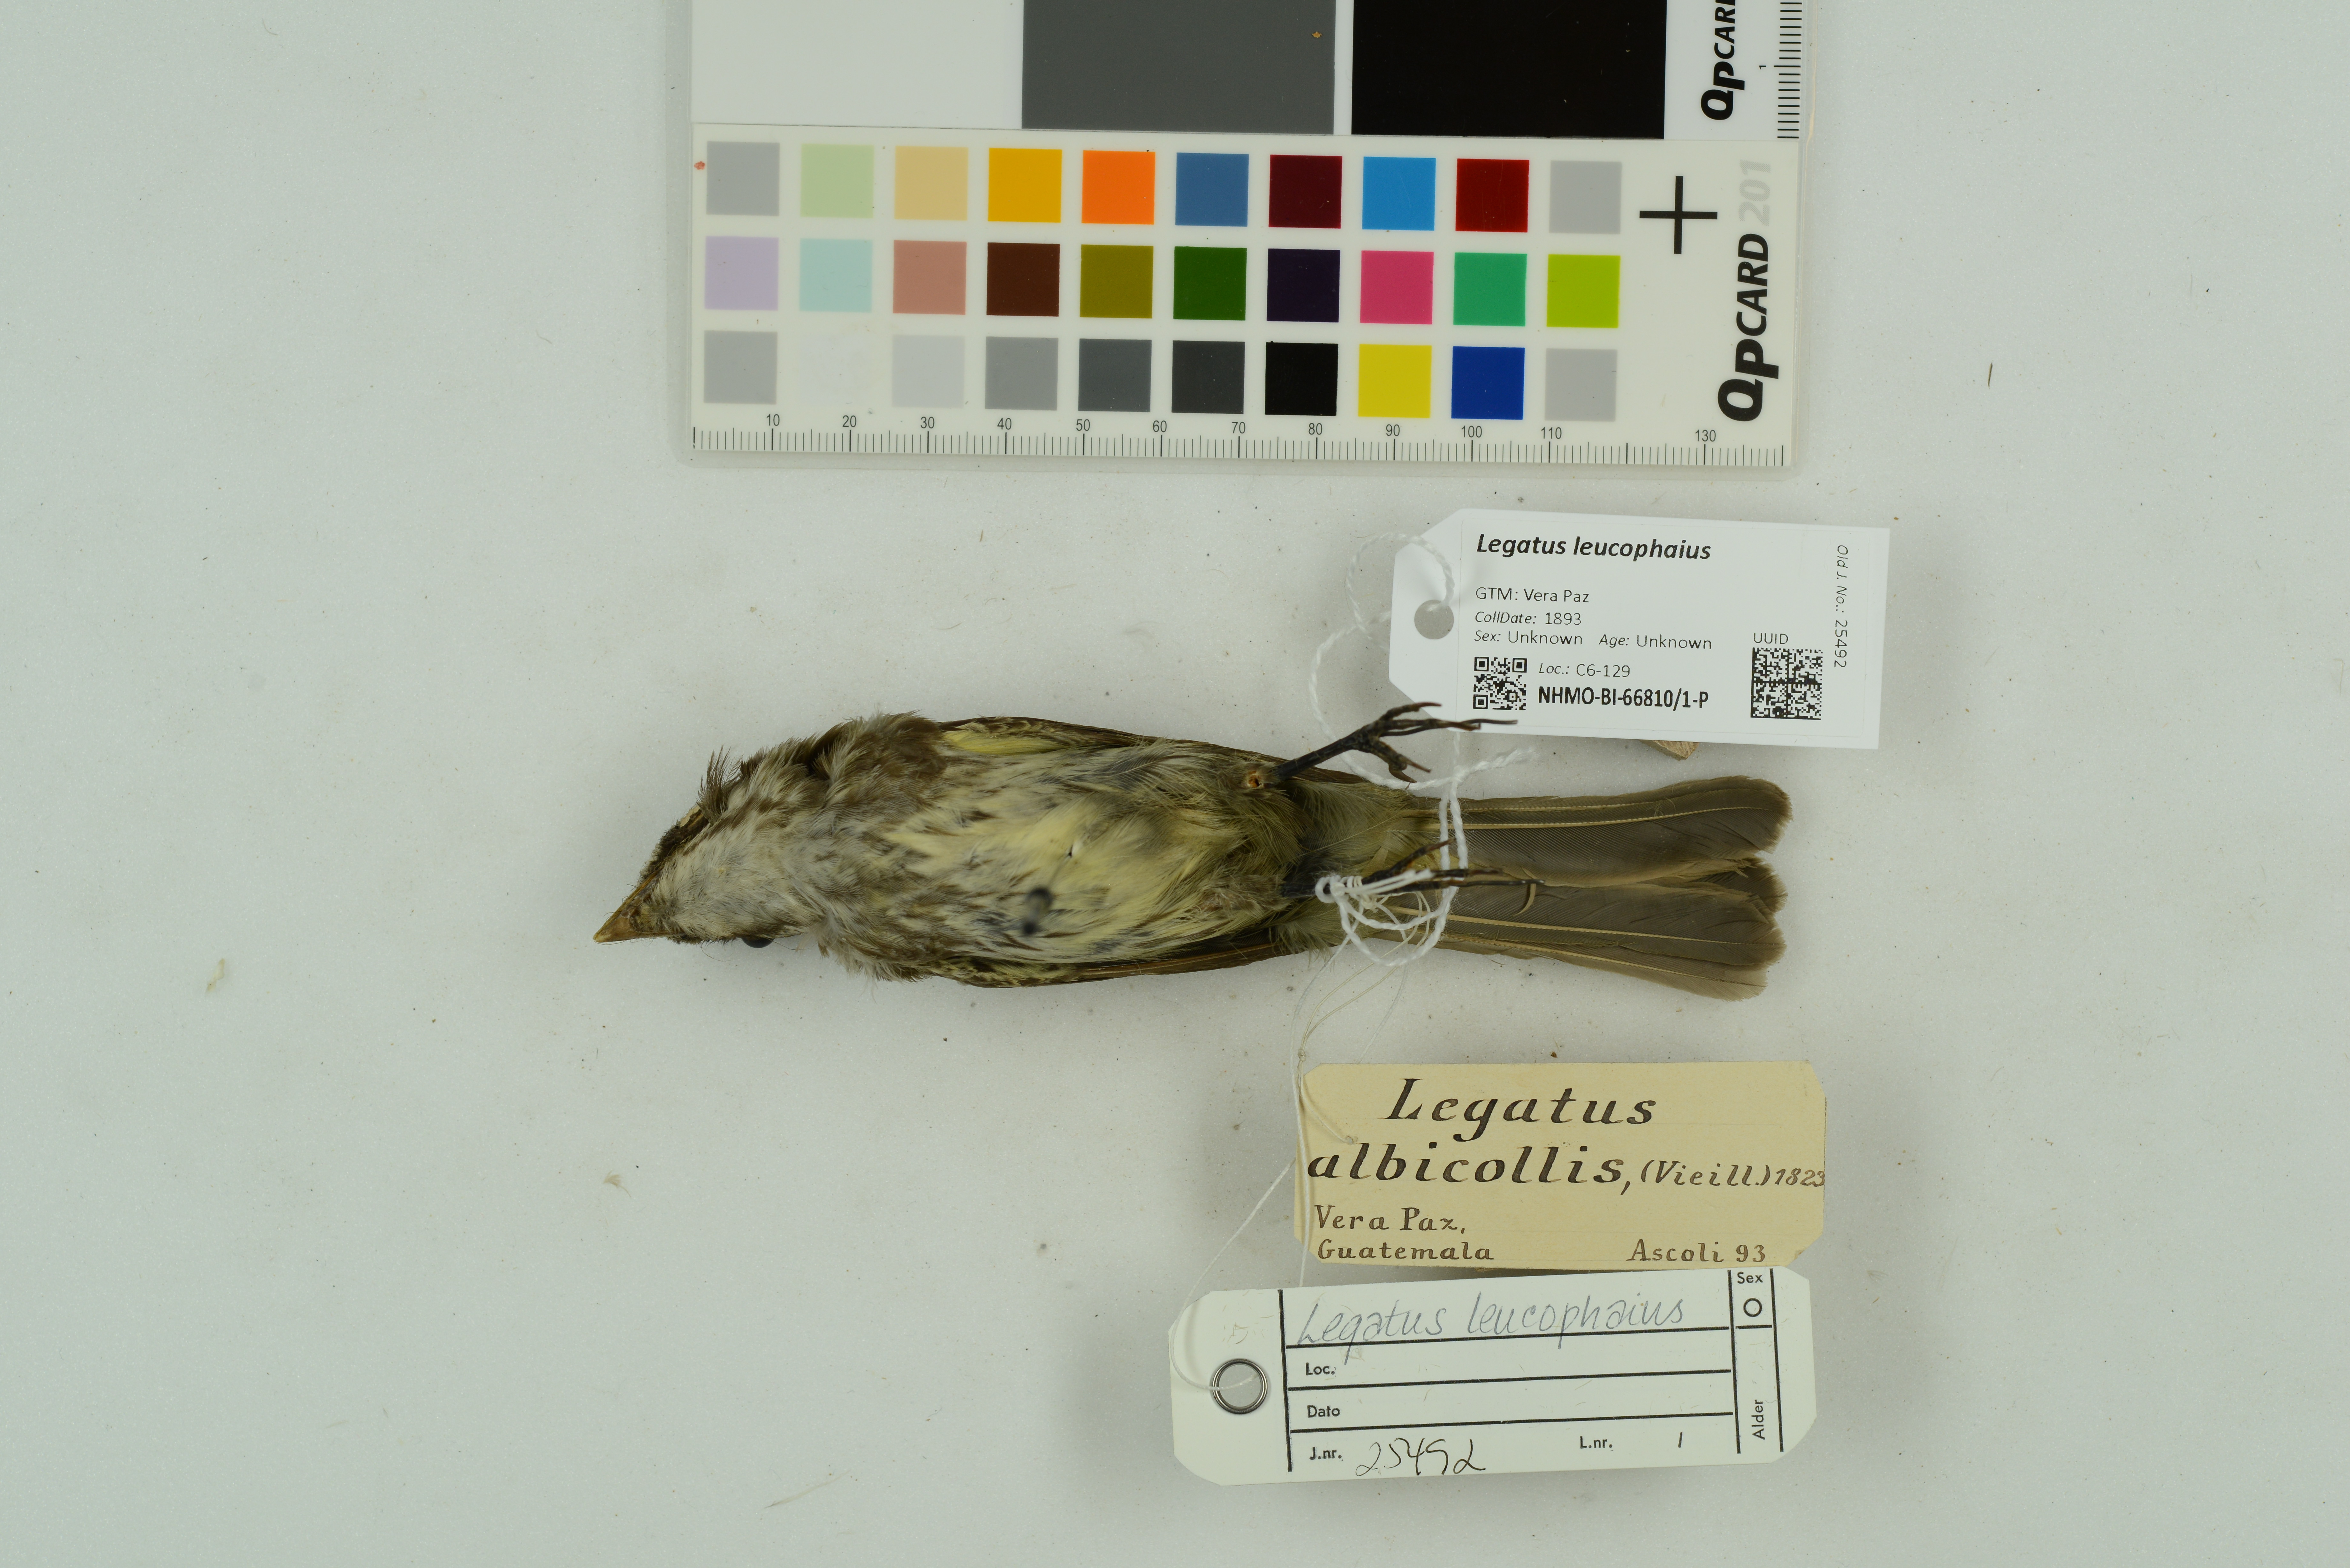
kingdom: Animalia
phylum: Chordata
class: Aves
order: Passeriformes
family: Tyrannidae
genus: Legatus
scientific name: Legatus leucophaius
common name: Piratic flycatcher
